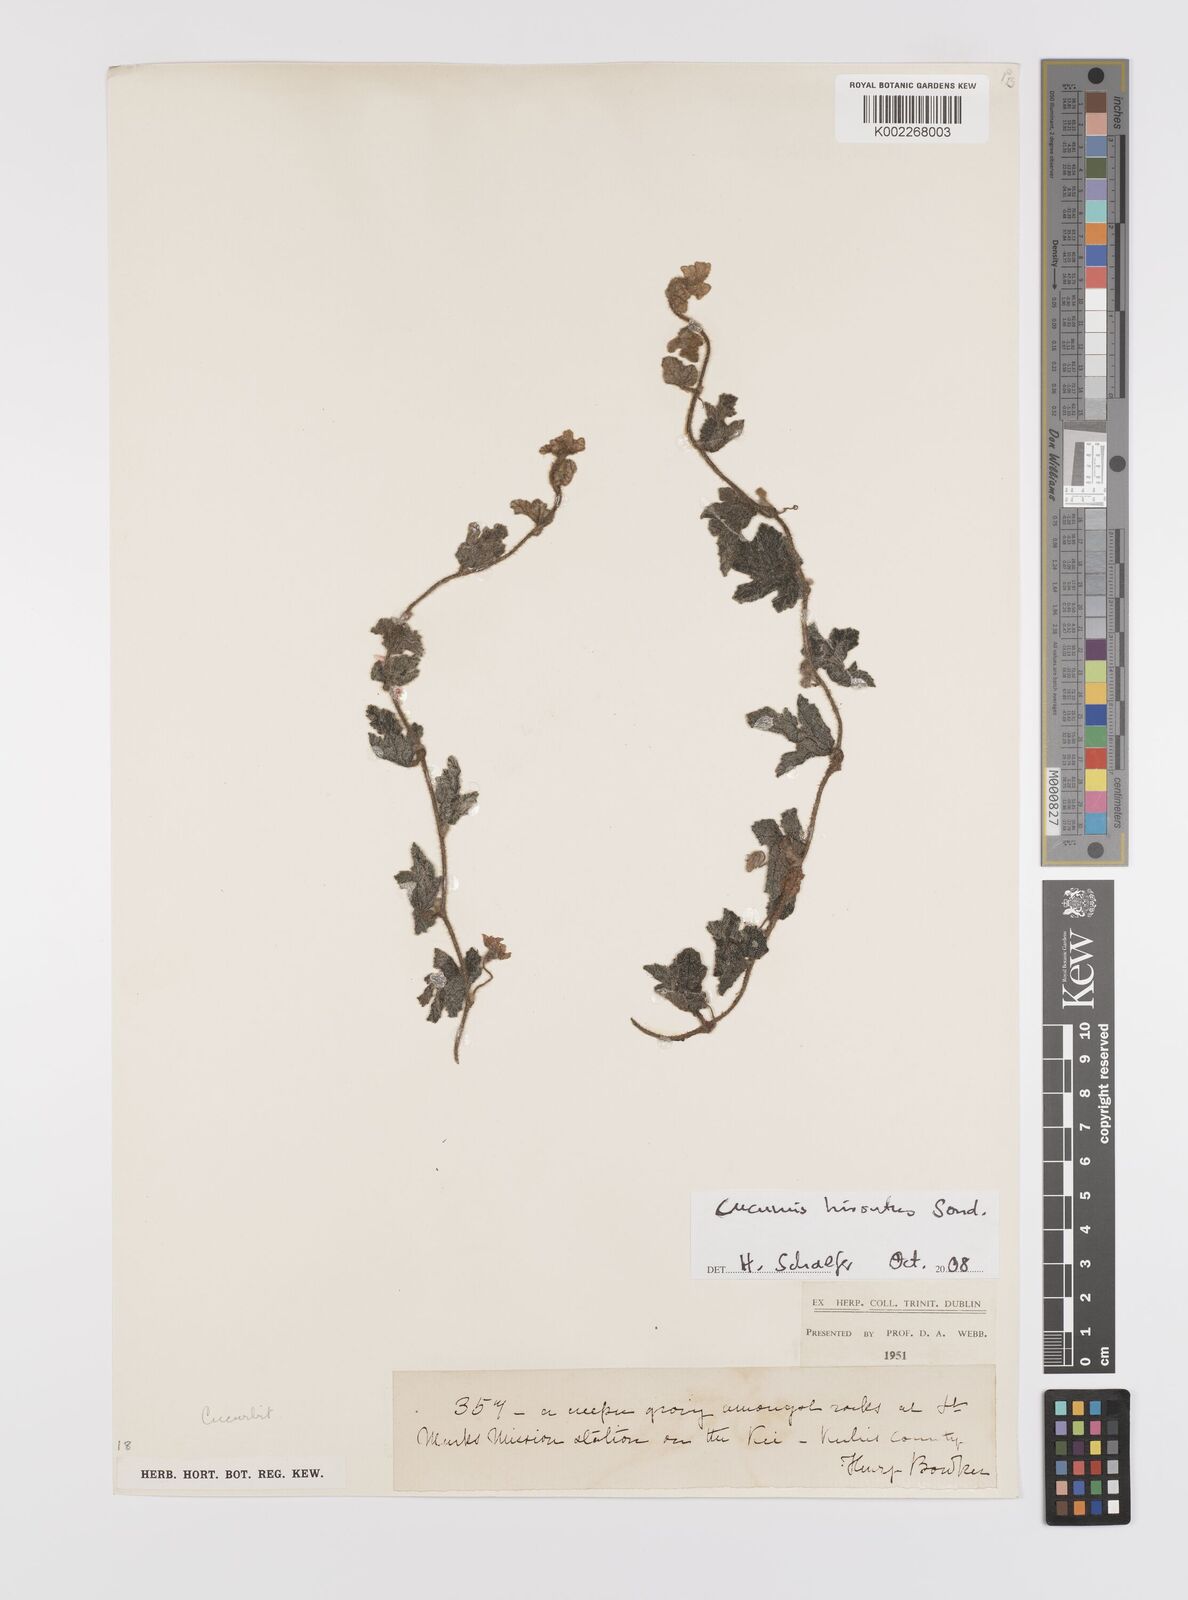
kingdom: Plantae
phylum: Tracheophyta
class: Magnoliopsida
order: Cucurbitales
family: Cucurbitaceae
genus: Cucumis
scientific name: Cucumis hirsutus
